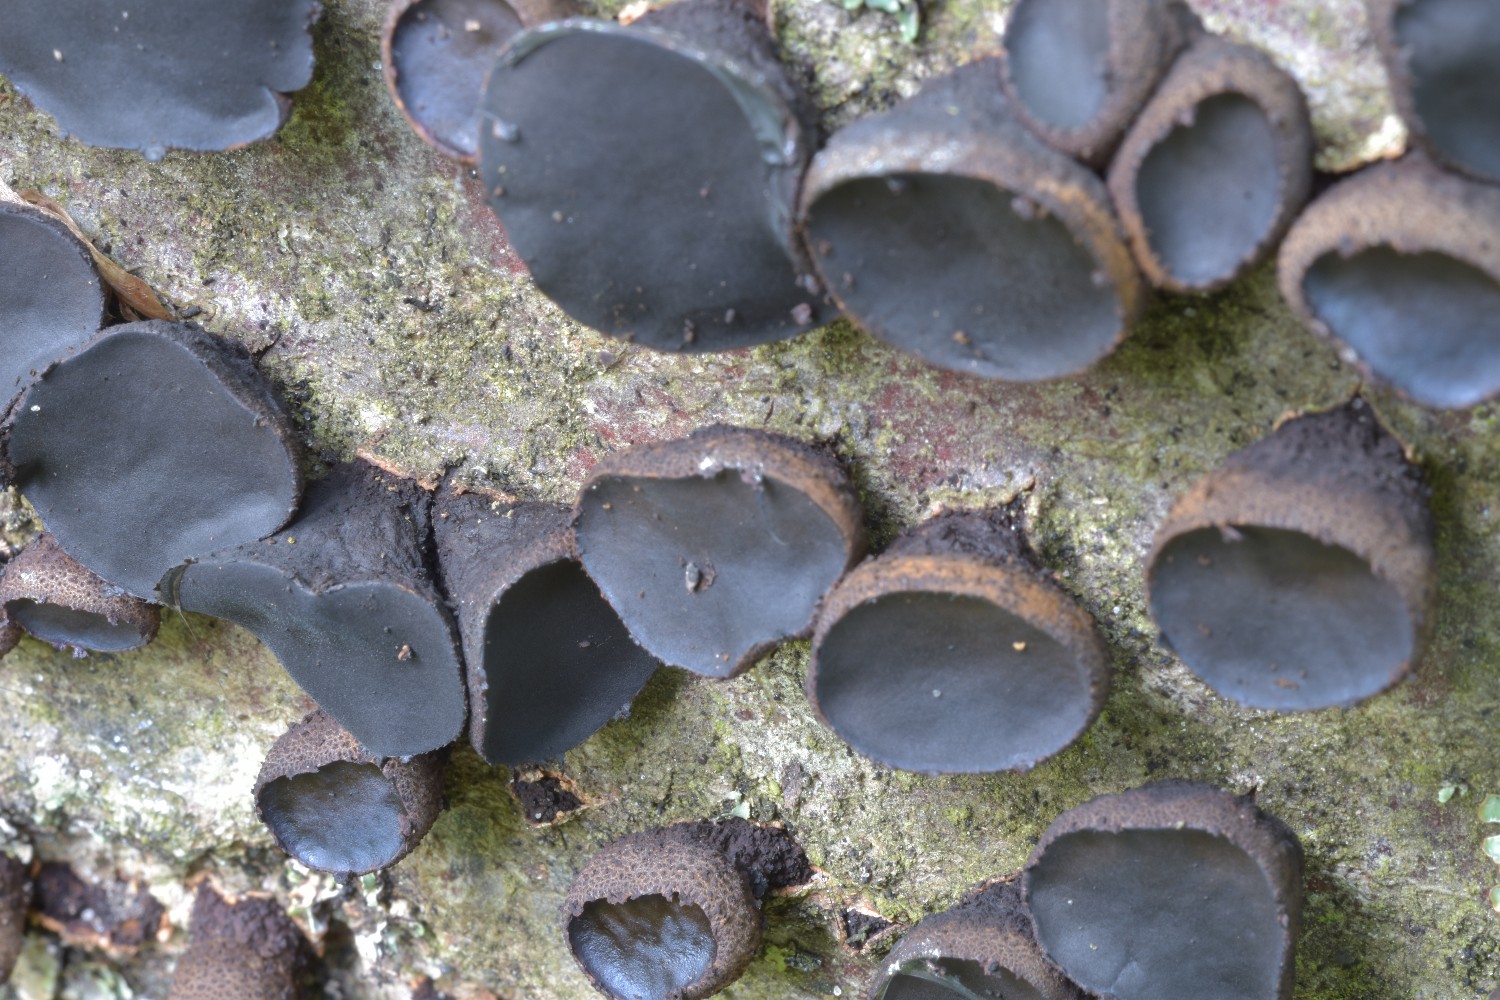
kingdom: Fungi
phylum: Ascomycota
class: Leotiomycetes
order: Phacidiales
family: Phacidiaceae
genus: Bulgaria
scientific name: Bulgaria inquinans
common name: afsmittende topsvamp
